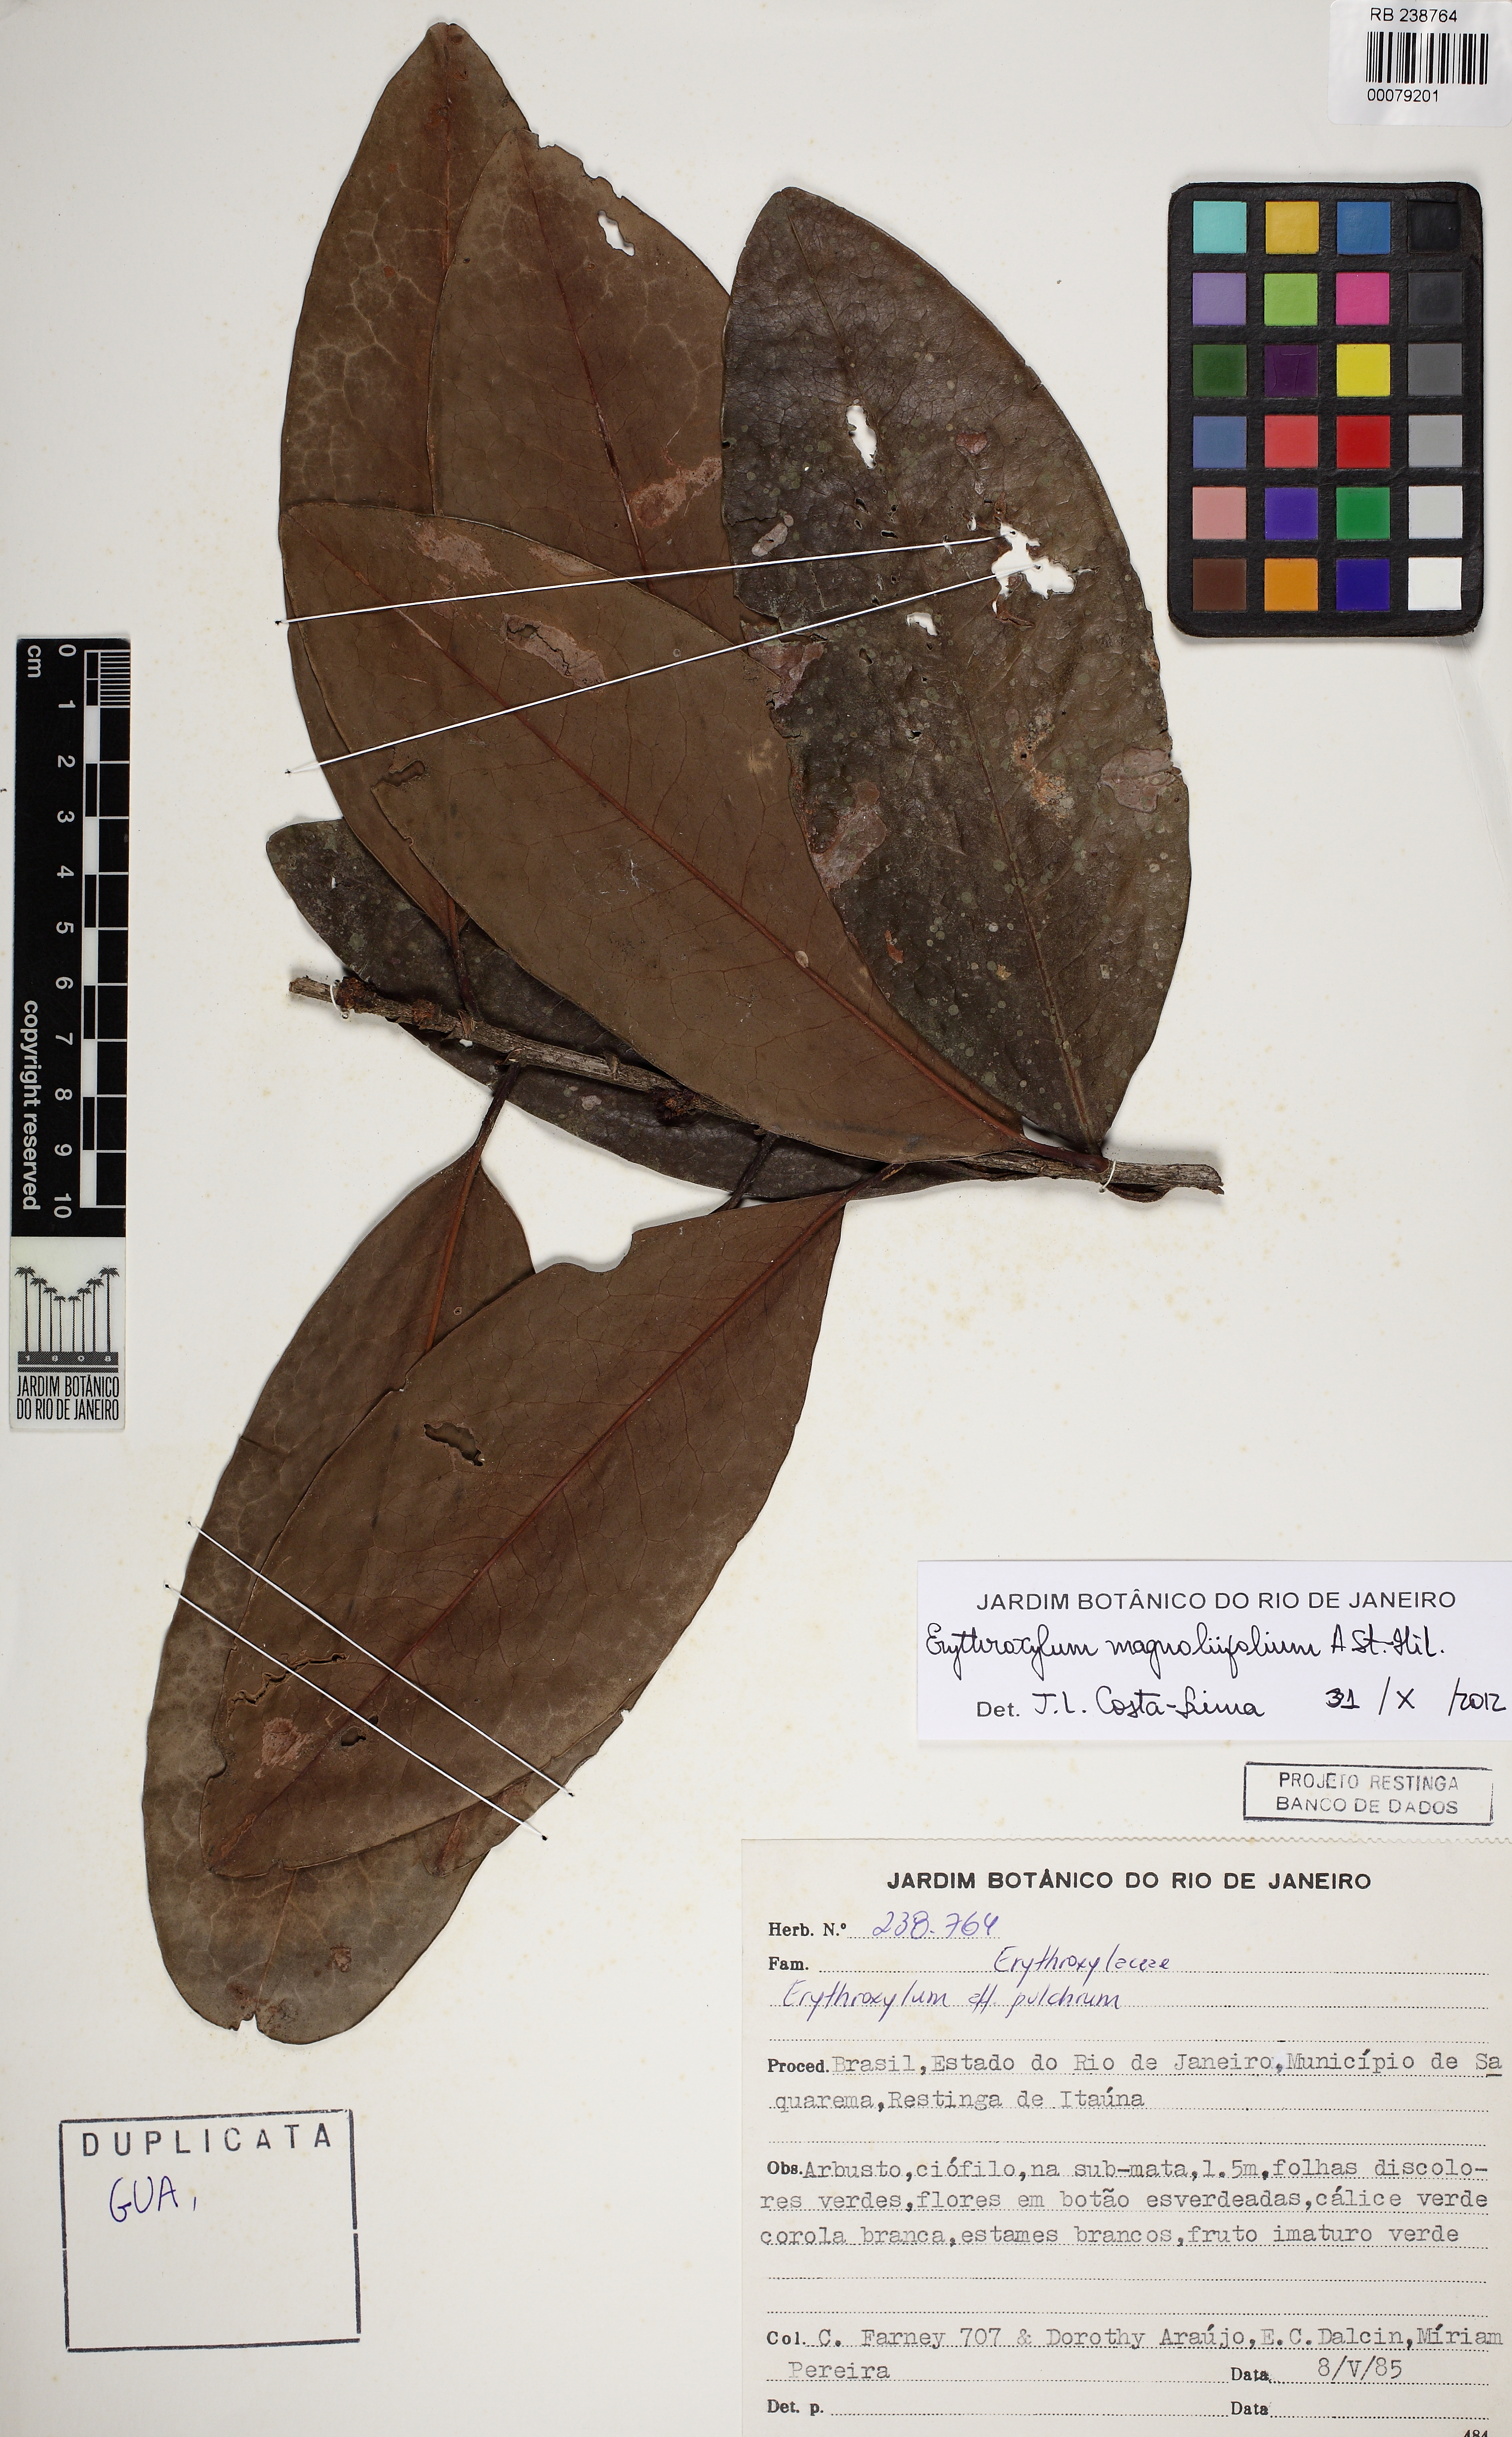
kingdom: Plantae
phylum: Tracheophyta
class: Magnoliopsida
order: Malpighiales
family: Erythroxylaceae
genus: Erythroxylum
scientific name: Erythroxylum magnoliifolium
